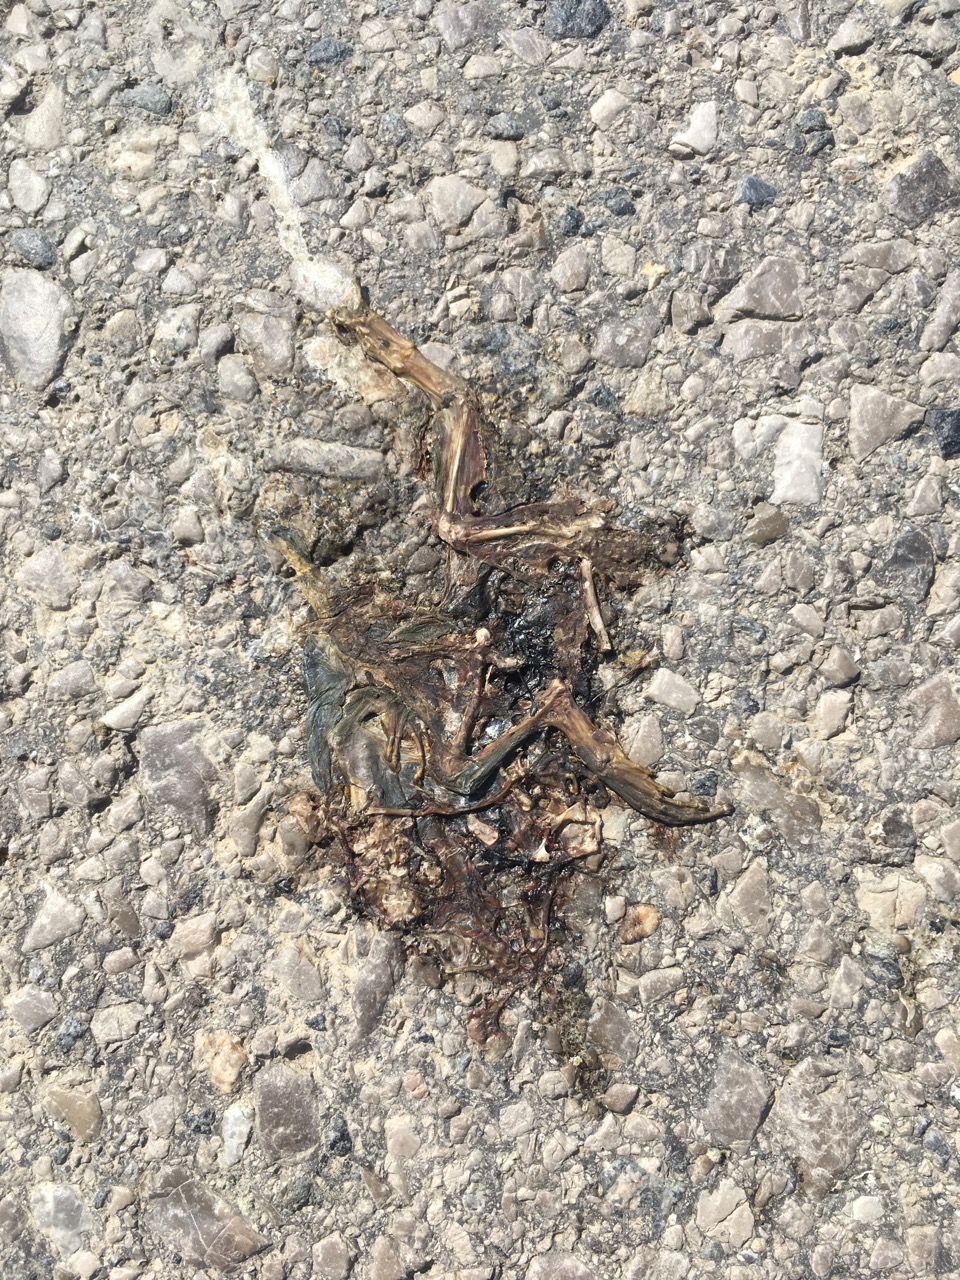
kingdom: Animalia
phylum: Chordata
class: Amphibia
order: Anura
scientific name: Anura
